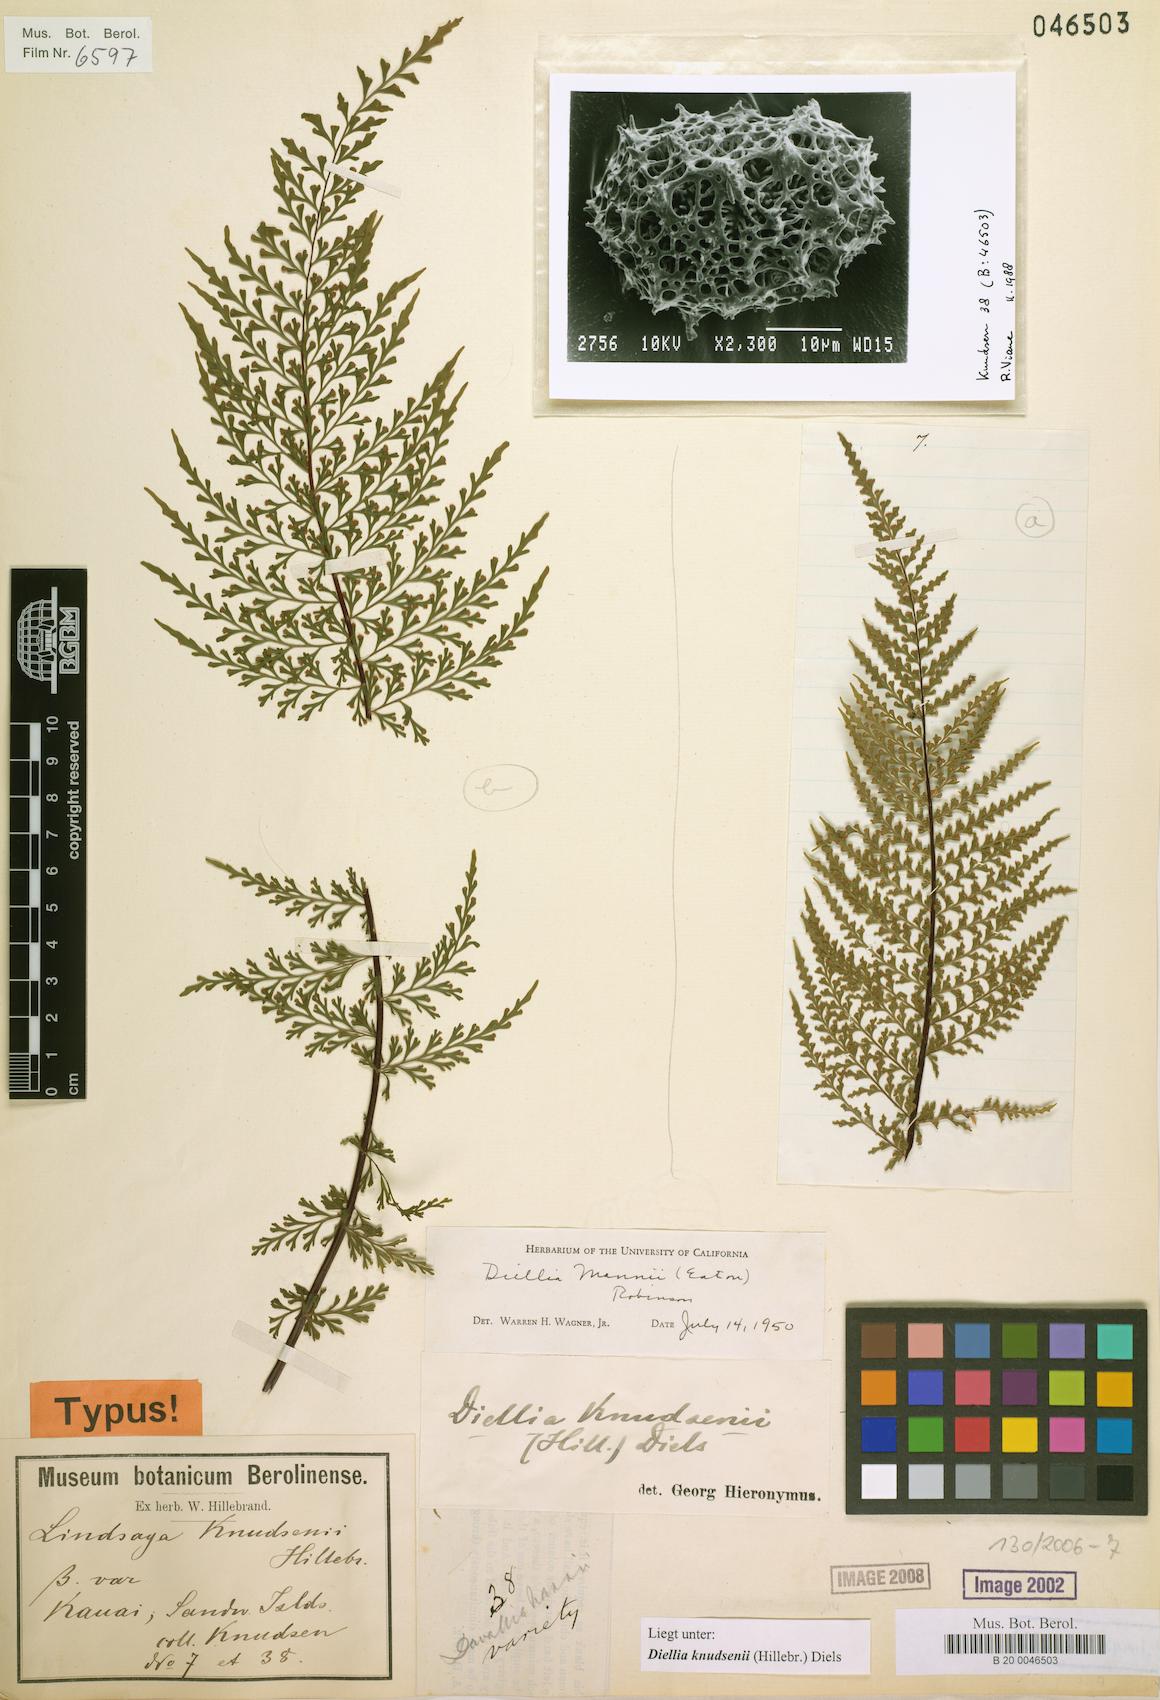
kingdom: Plantae
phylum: Tracheophyta
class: Polypodiopsida
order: Polypodiales
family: Aspleniaceae
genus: Asplenium
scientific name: Asplenium dielmannii
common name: Mann's island spleenwort
